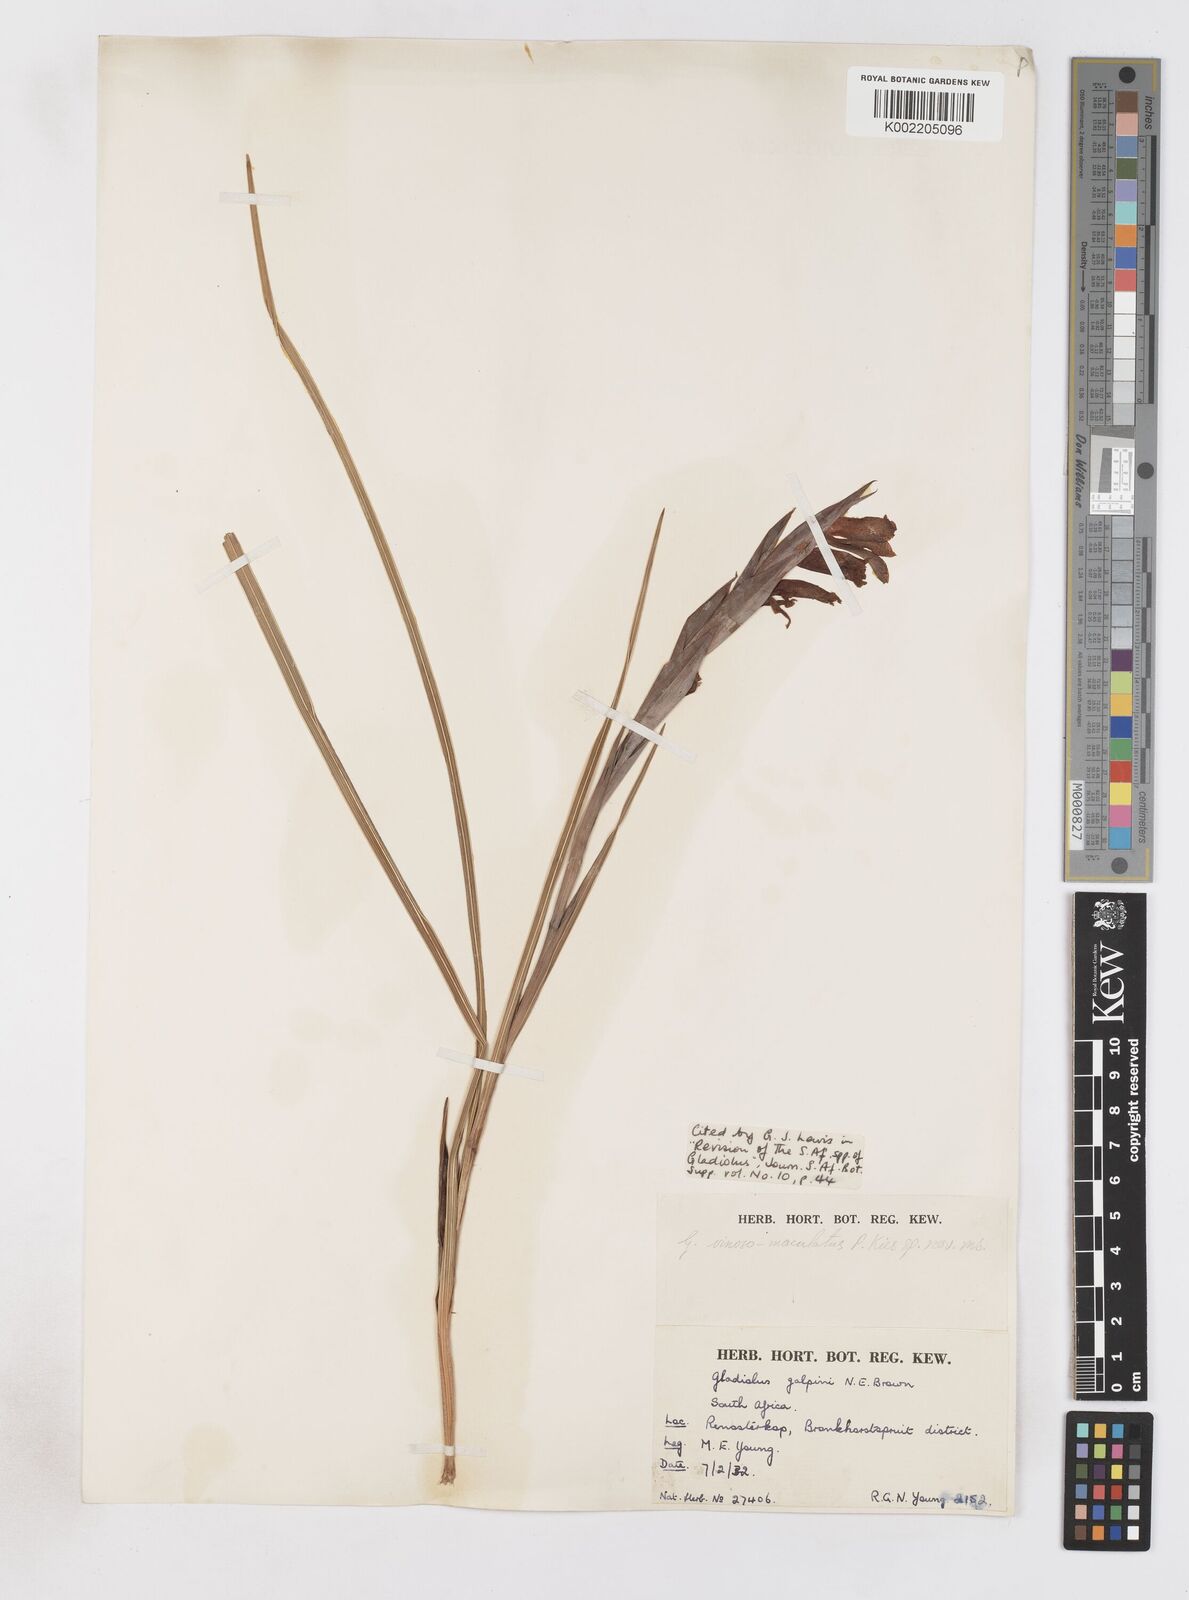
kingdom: Plantae
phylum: Tracheophyta
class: Liliopsida
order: Asparagales
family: Iridaceae
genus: Gladiolus
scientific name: Gladiolus vinosomaculatus
